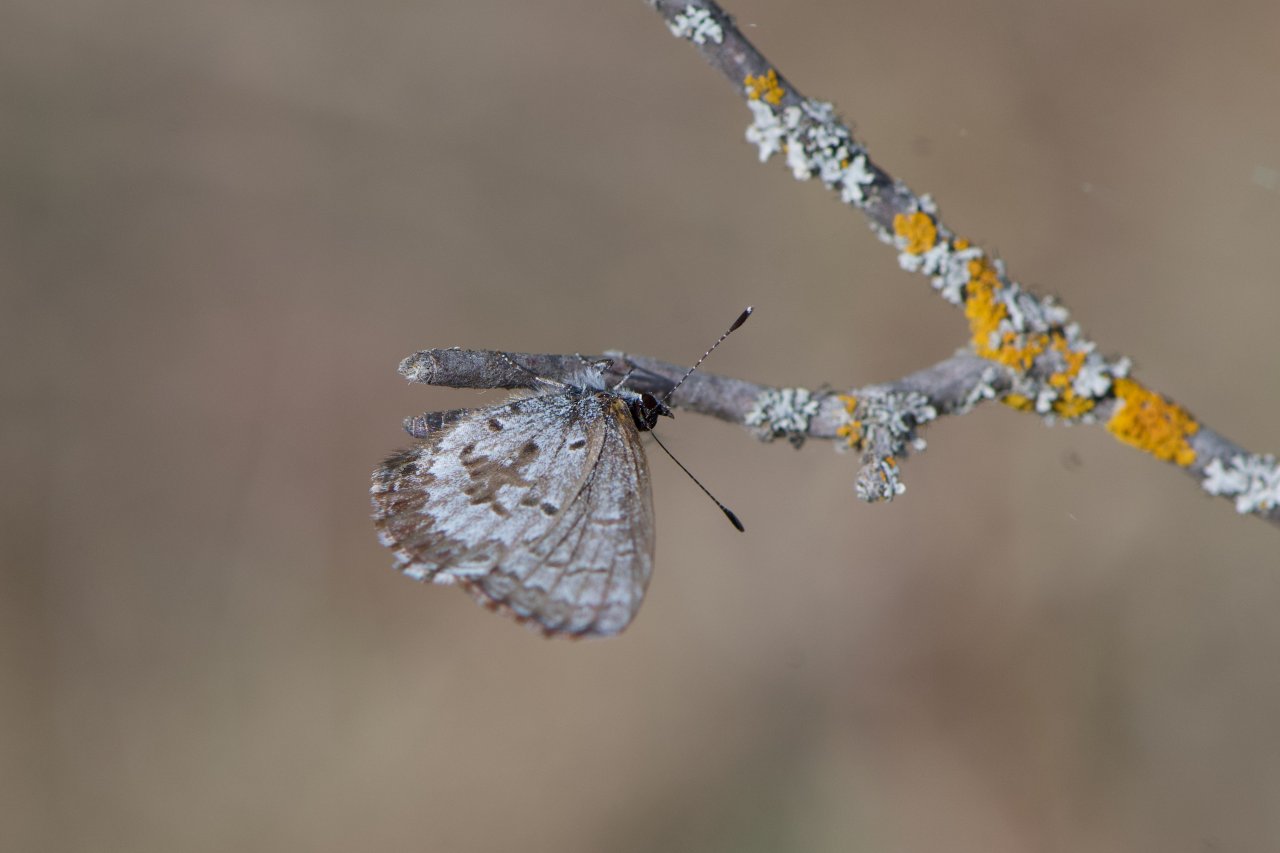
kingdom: Animalia
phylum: Arthropoda
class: Insecta
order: Lepidoptera
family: Lycaenidae
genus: Celastrina
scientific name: Celastrina lucia
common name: Northern Spring Azure
